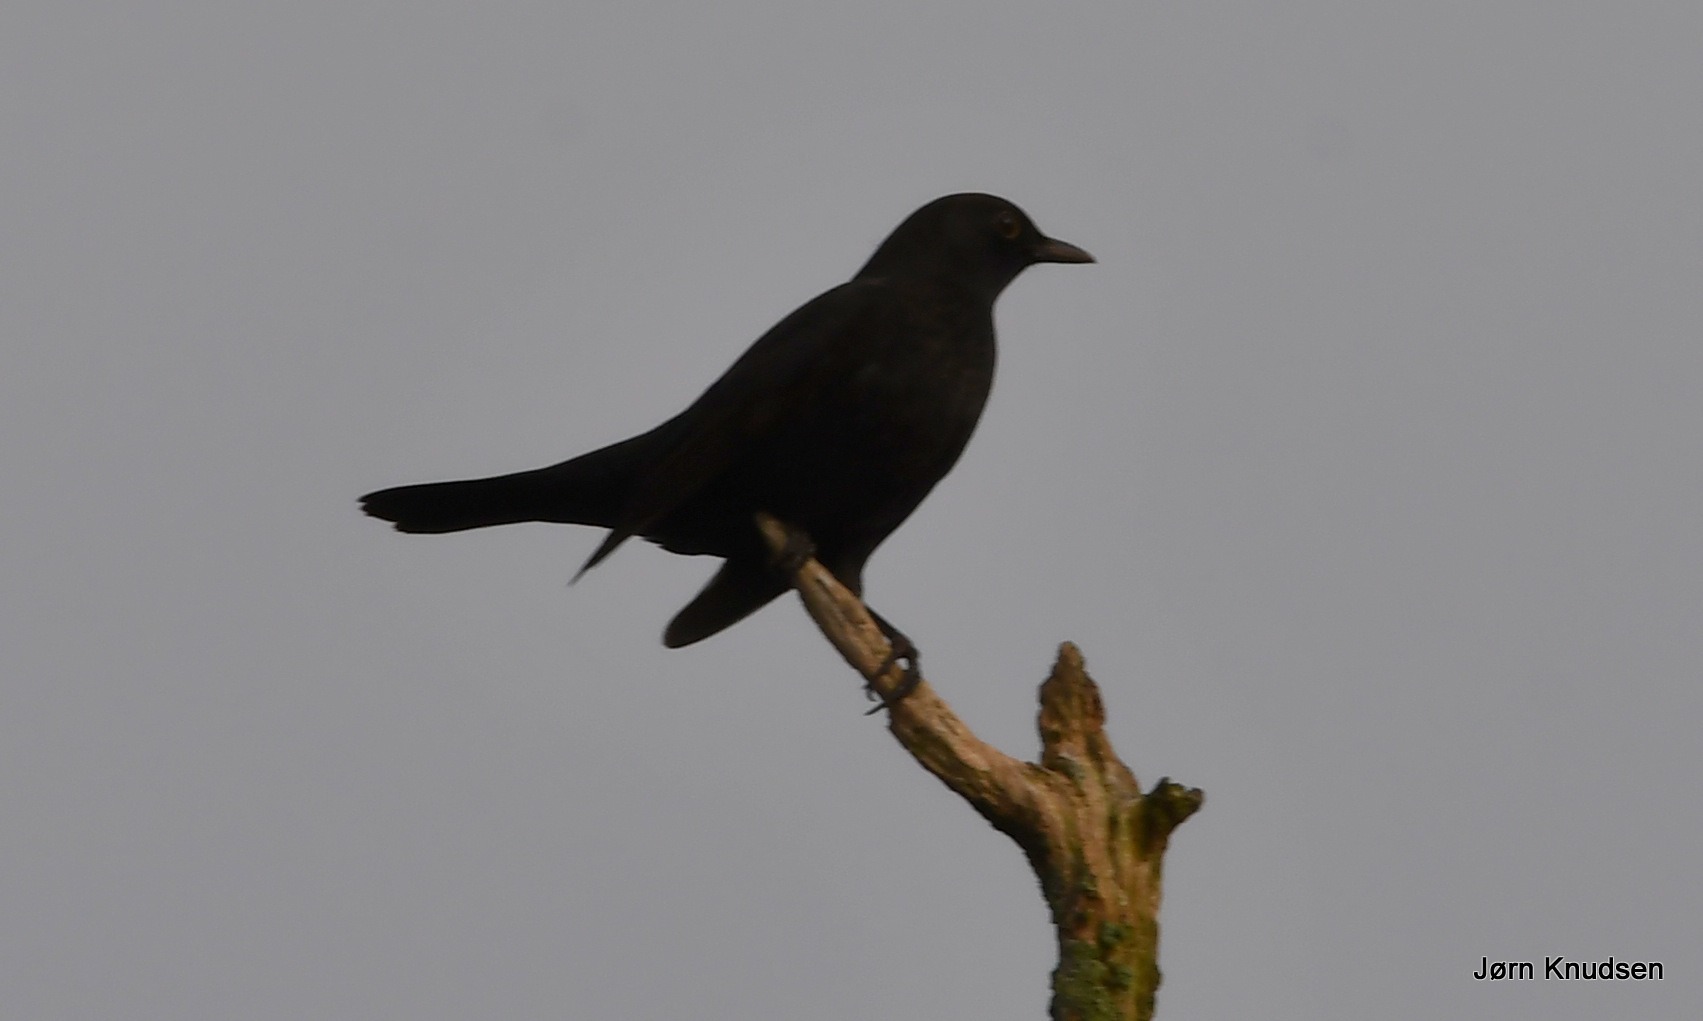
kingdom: Animalia
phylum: Chordata
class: Aves
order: Passeriformes
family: Turdidae
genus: Turdus
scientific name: Turdus merula
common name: Solsort
